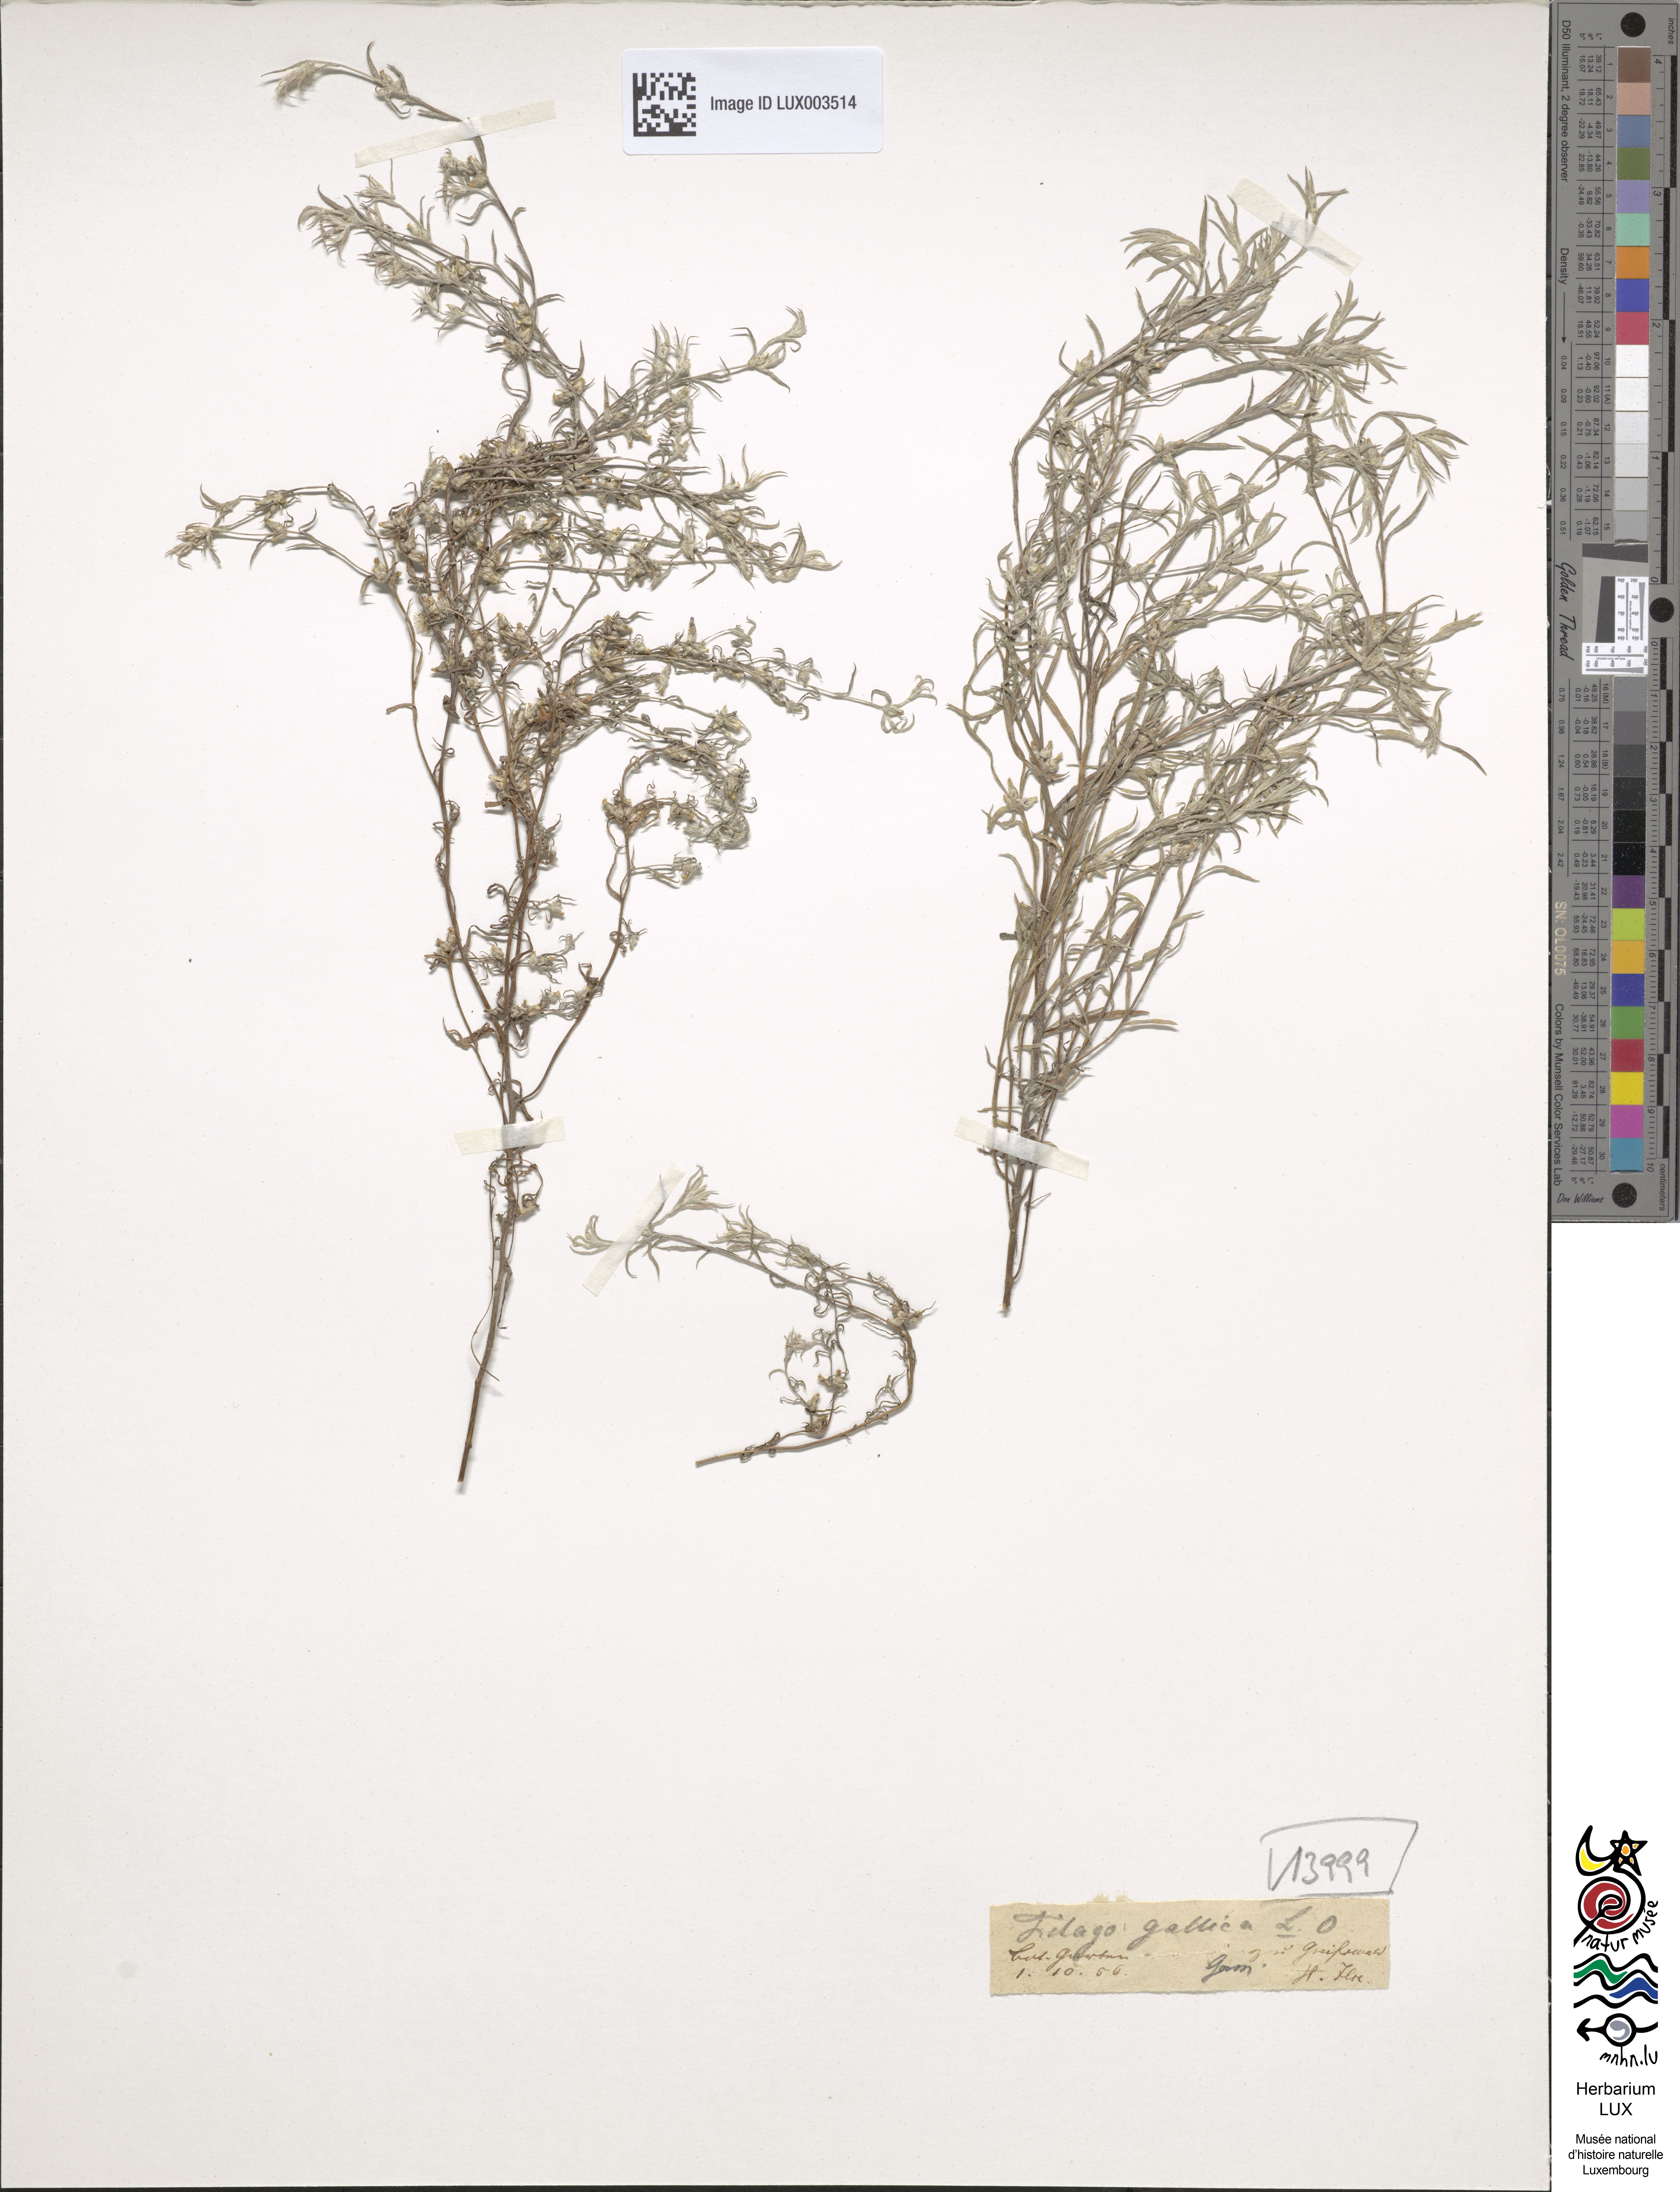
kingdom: Plantae
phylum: Tracheophyta
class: Magnoliopsida
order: Asterales
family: Asteraceae
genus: Logfia
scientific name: Logfia gallica
